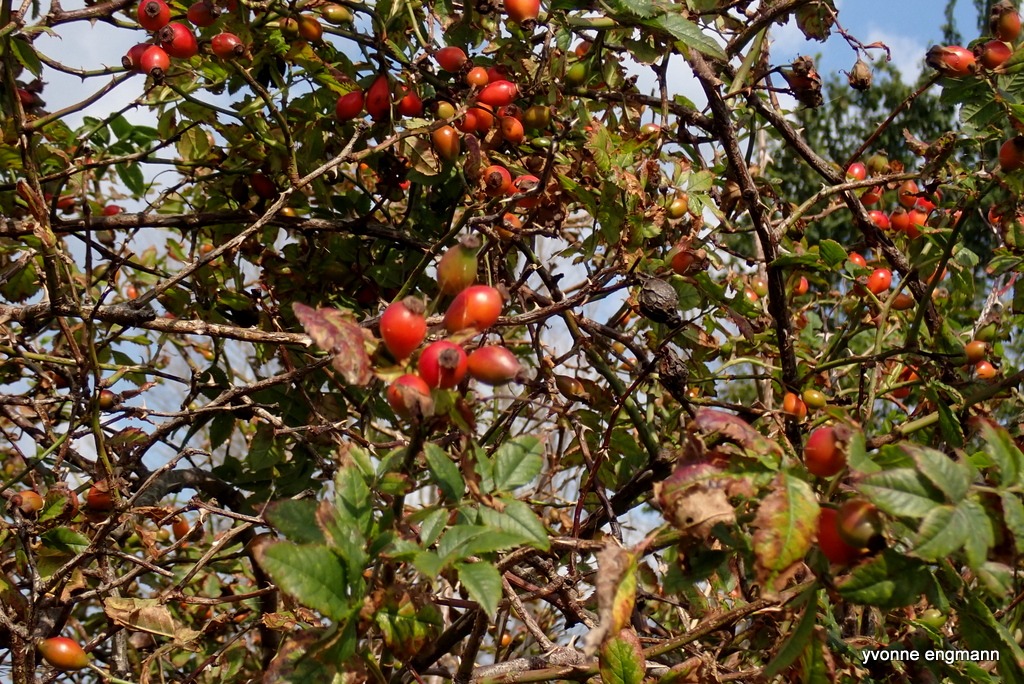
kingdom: Plantae
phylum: Tracheophyta
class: Magnoliopsida
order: Rosales
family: Rosaceae
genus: Rosa
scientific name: Rosa canina
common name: Hunde-rose
